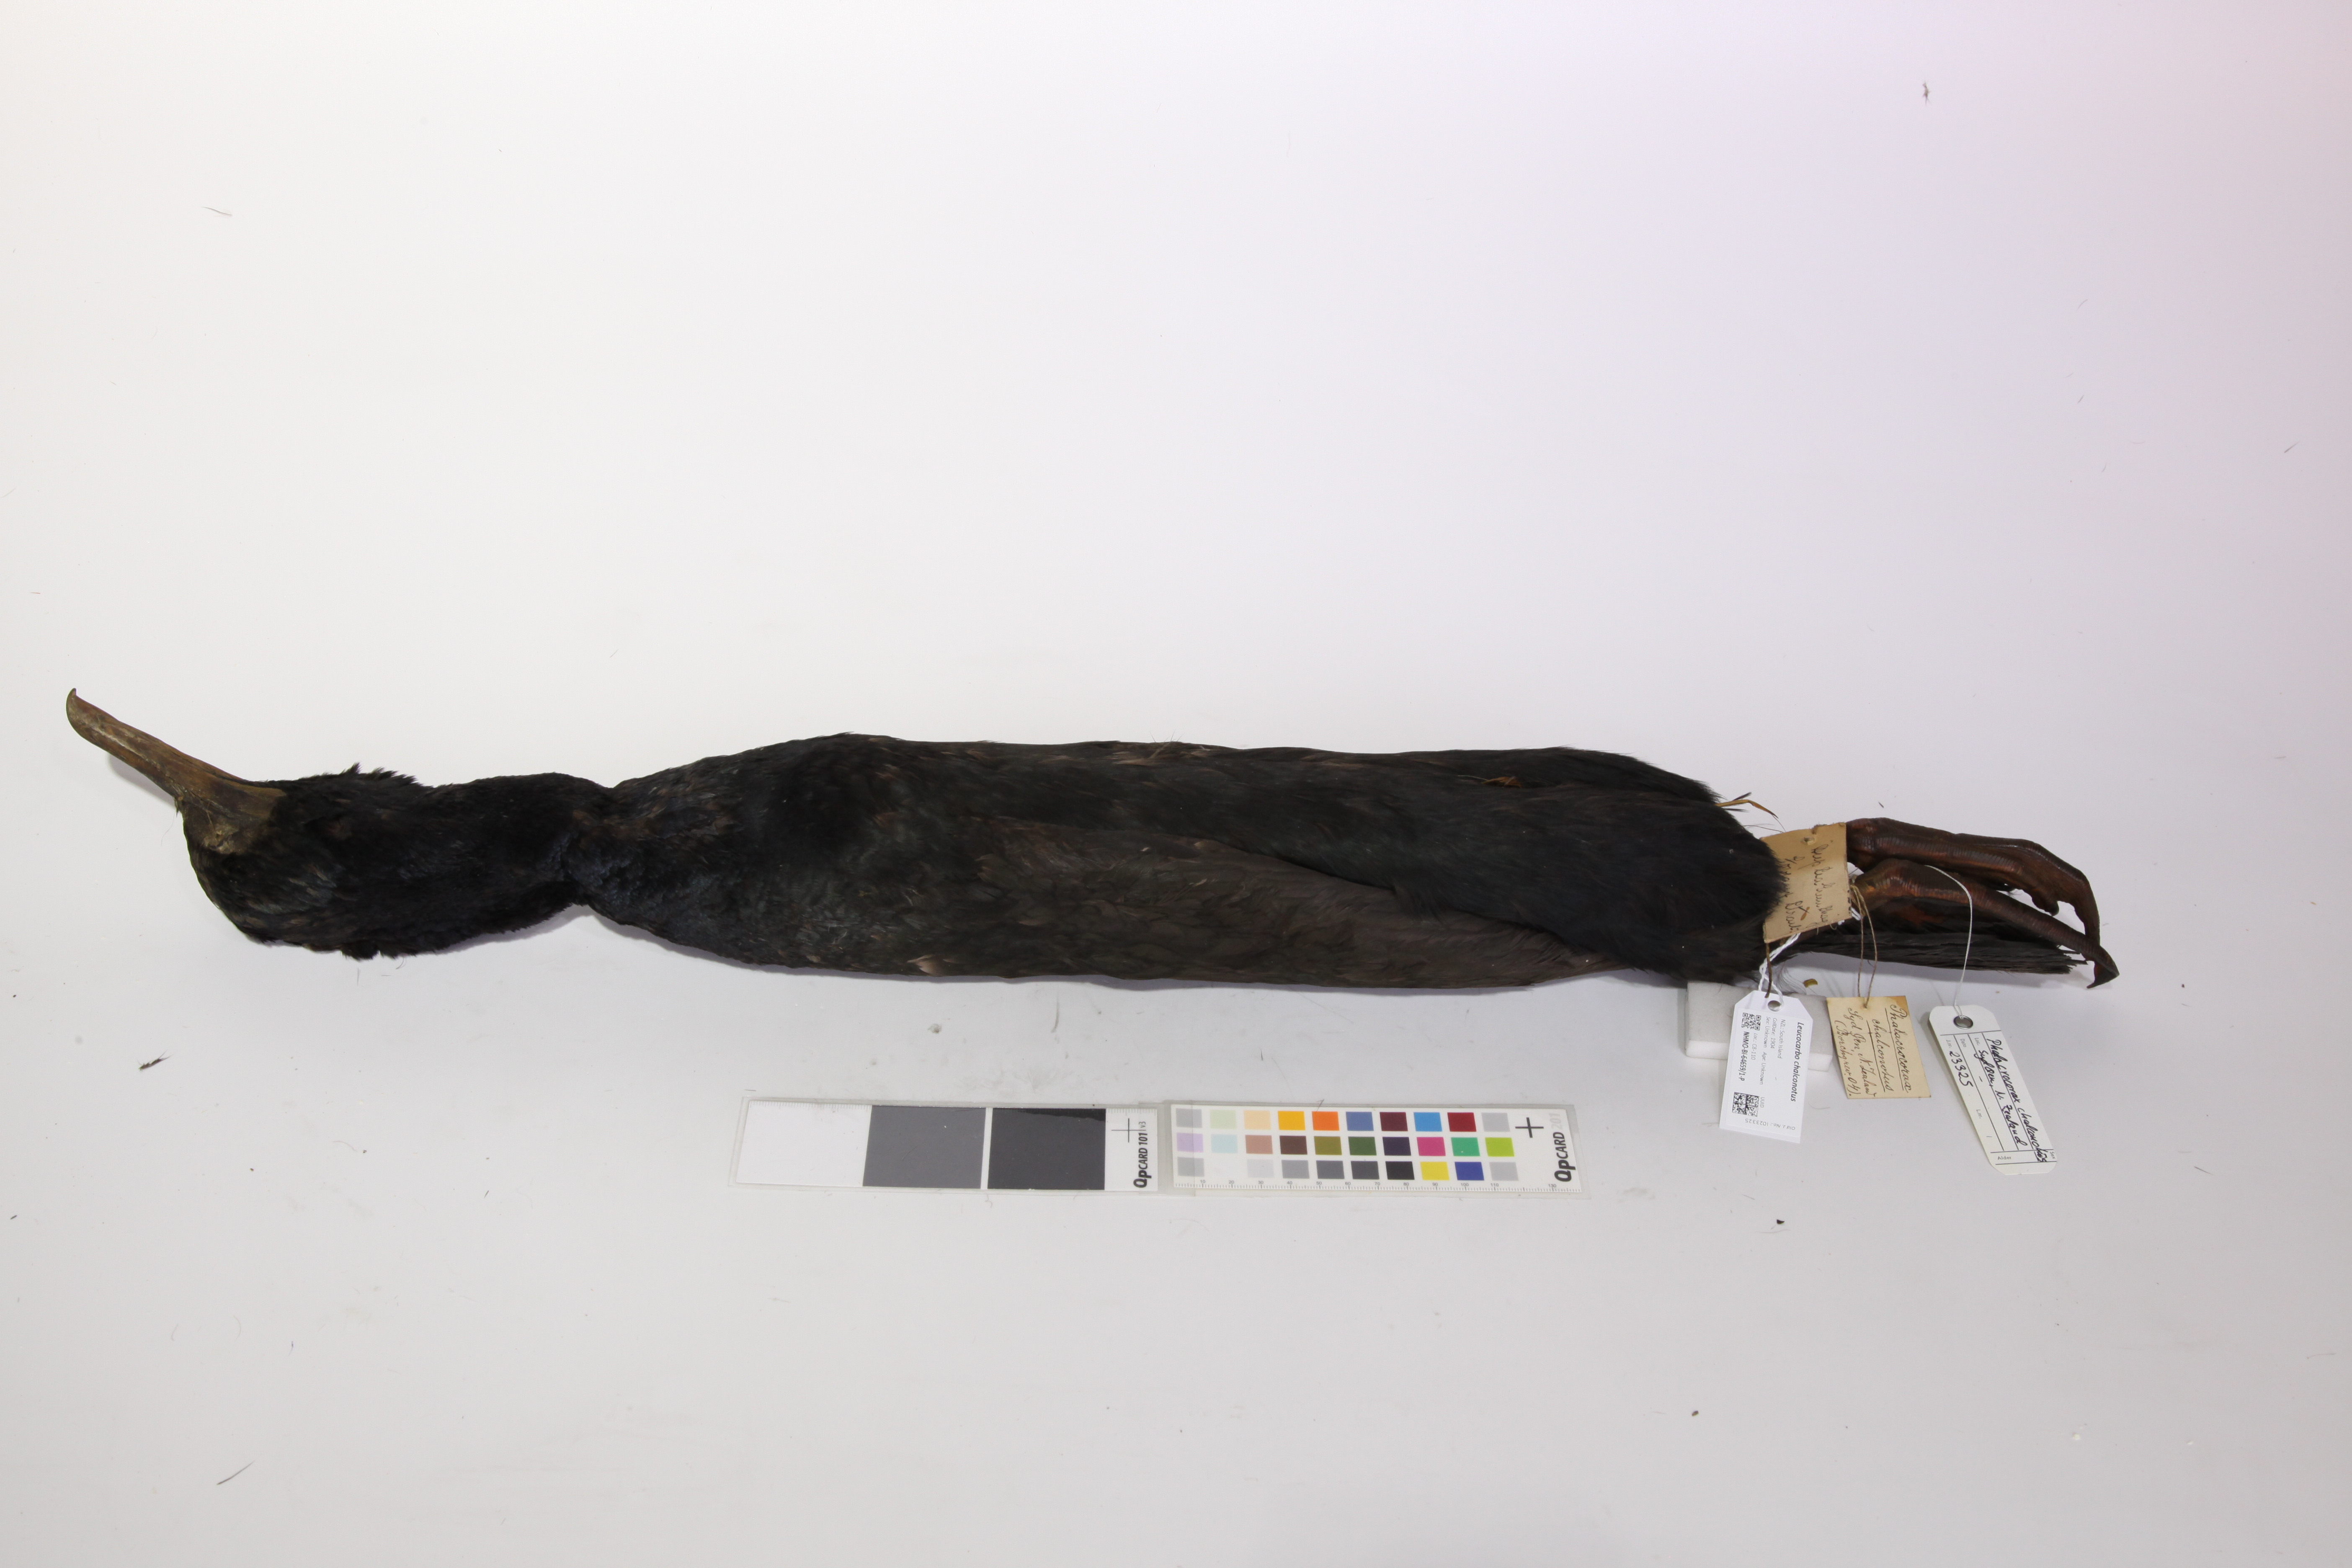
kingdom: Animalia
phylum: Chordata
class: Aves
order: Suliformes
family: Phalacrocoracidae
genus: Leucocarbo
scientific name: Leucocarbo chalconotus
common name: Stewart shag
